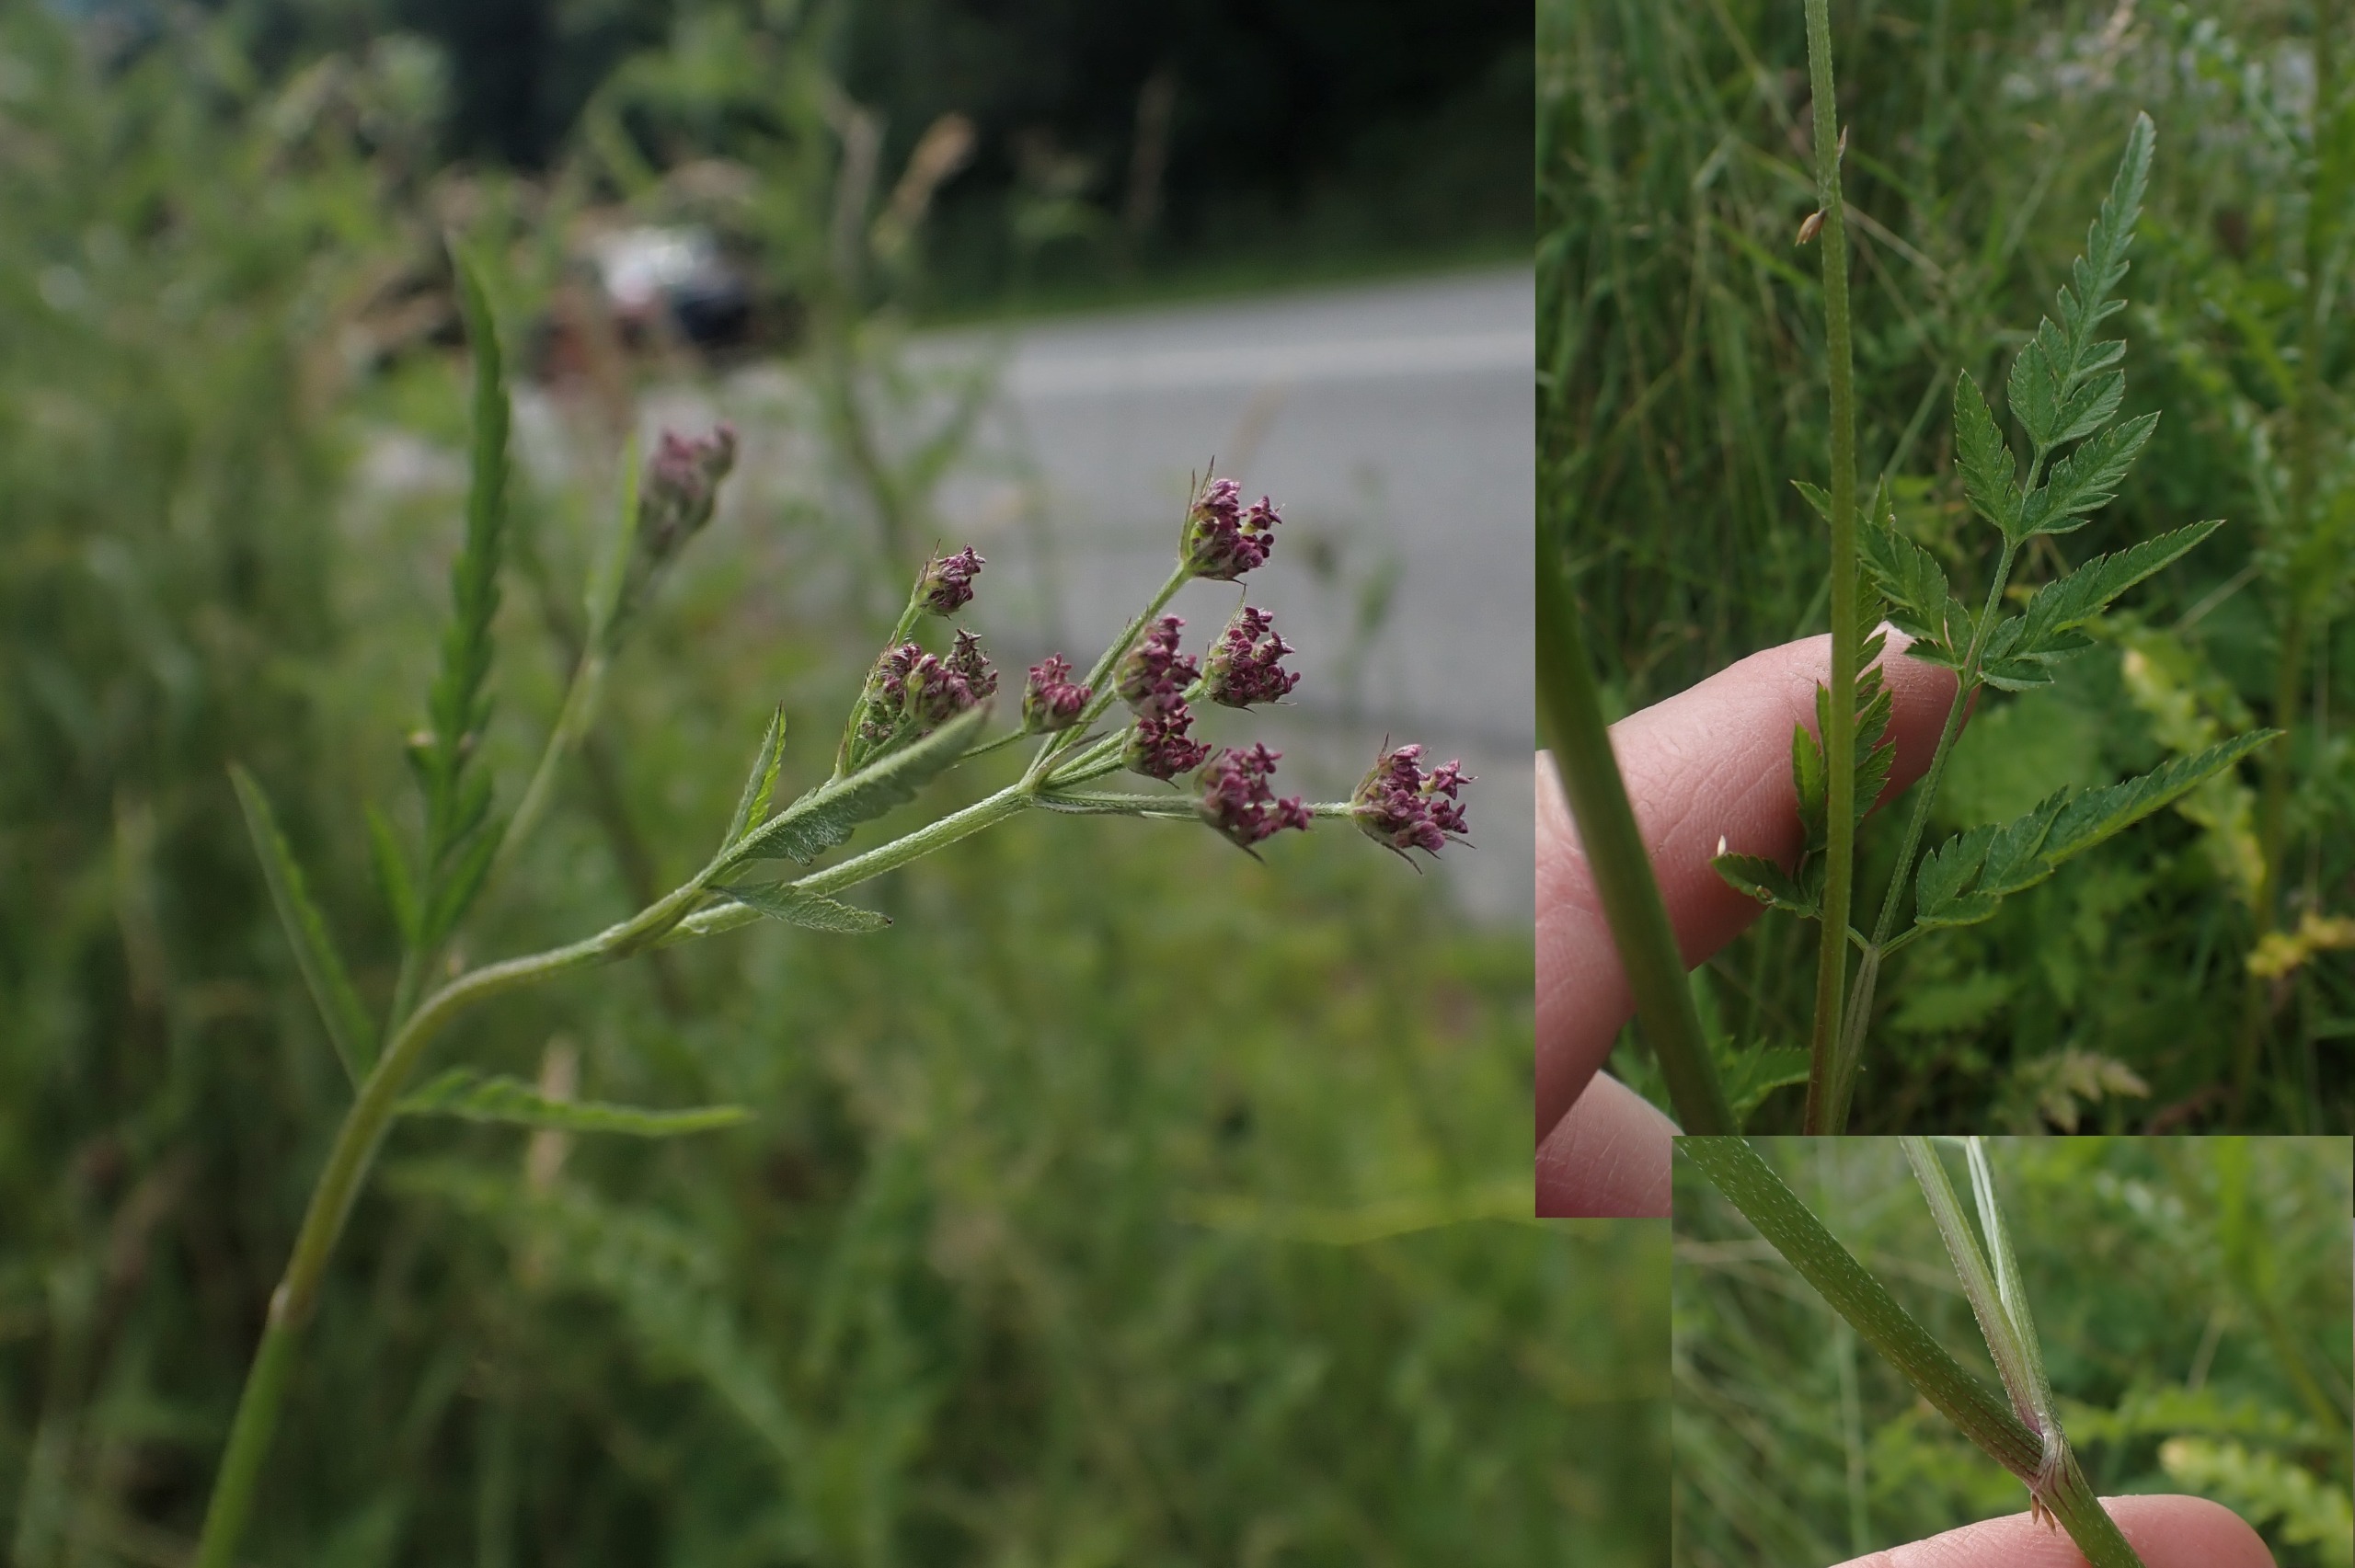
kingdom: Plantae
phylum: Tracheophyta
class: Magnoliopsida
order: Apiales
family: Apiaceae
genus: Torilis
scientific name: Torilis japonica
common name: Hvas randfrø
